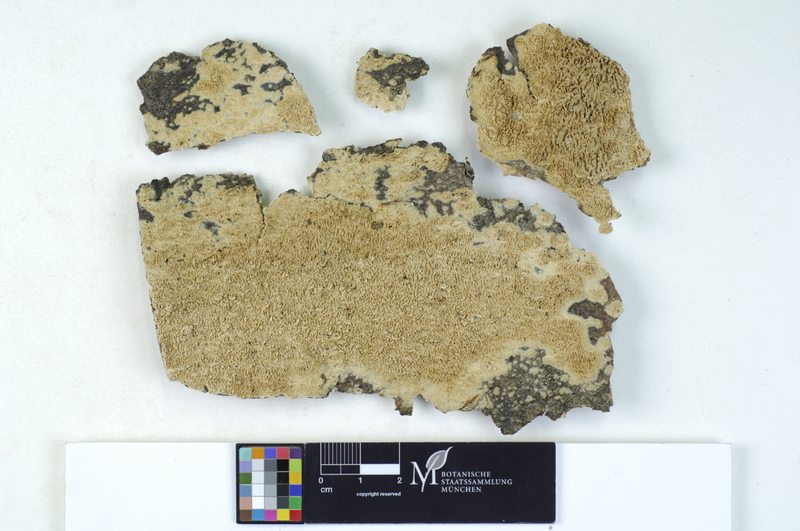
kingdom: Plantae
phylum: Tracheophyta
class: Magnoliopsida
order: Fagales
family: Fagaceae
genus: Fagus
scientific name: Fagus sylvatica
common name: Beech
